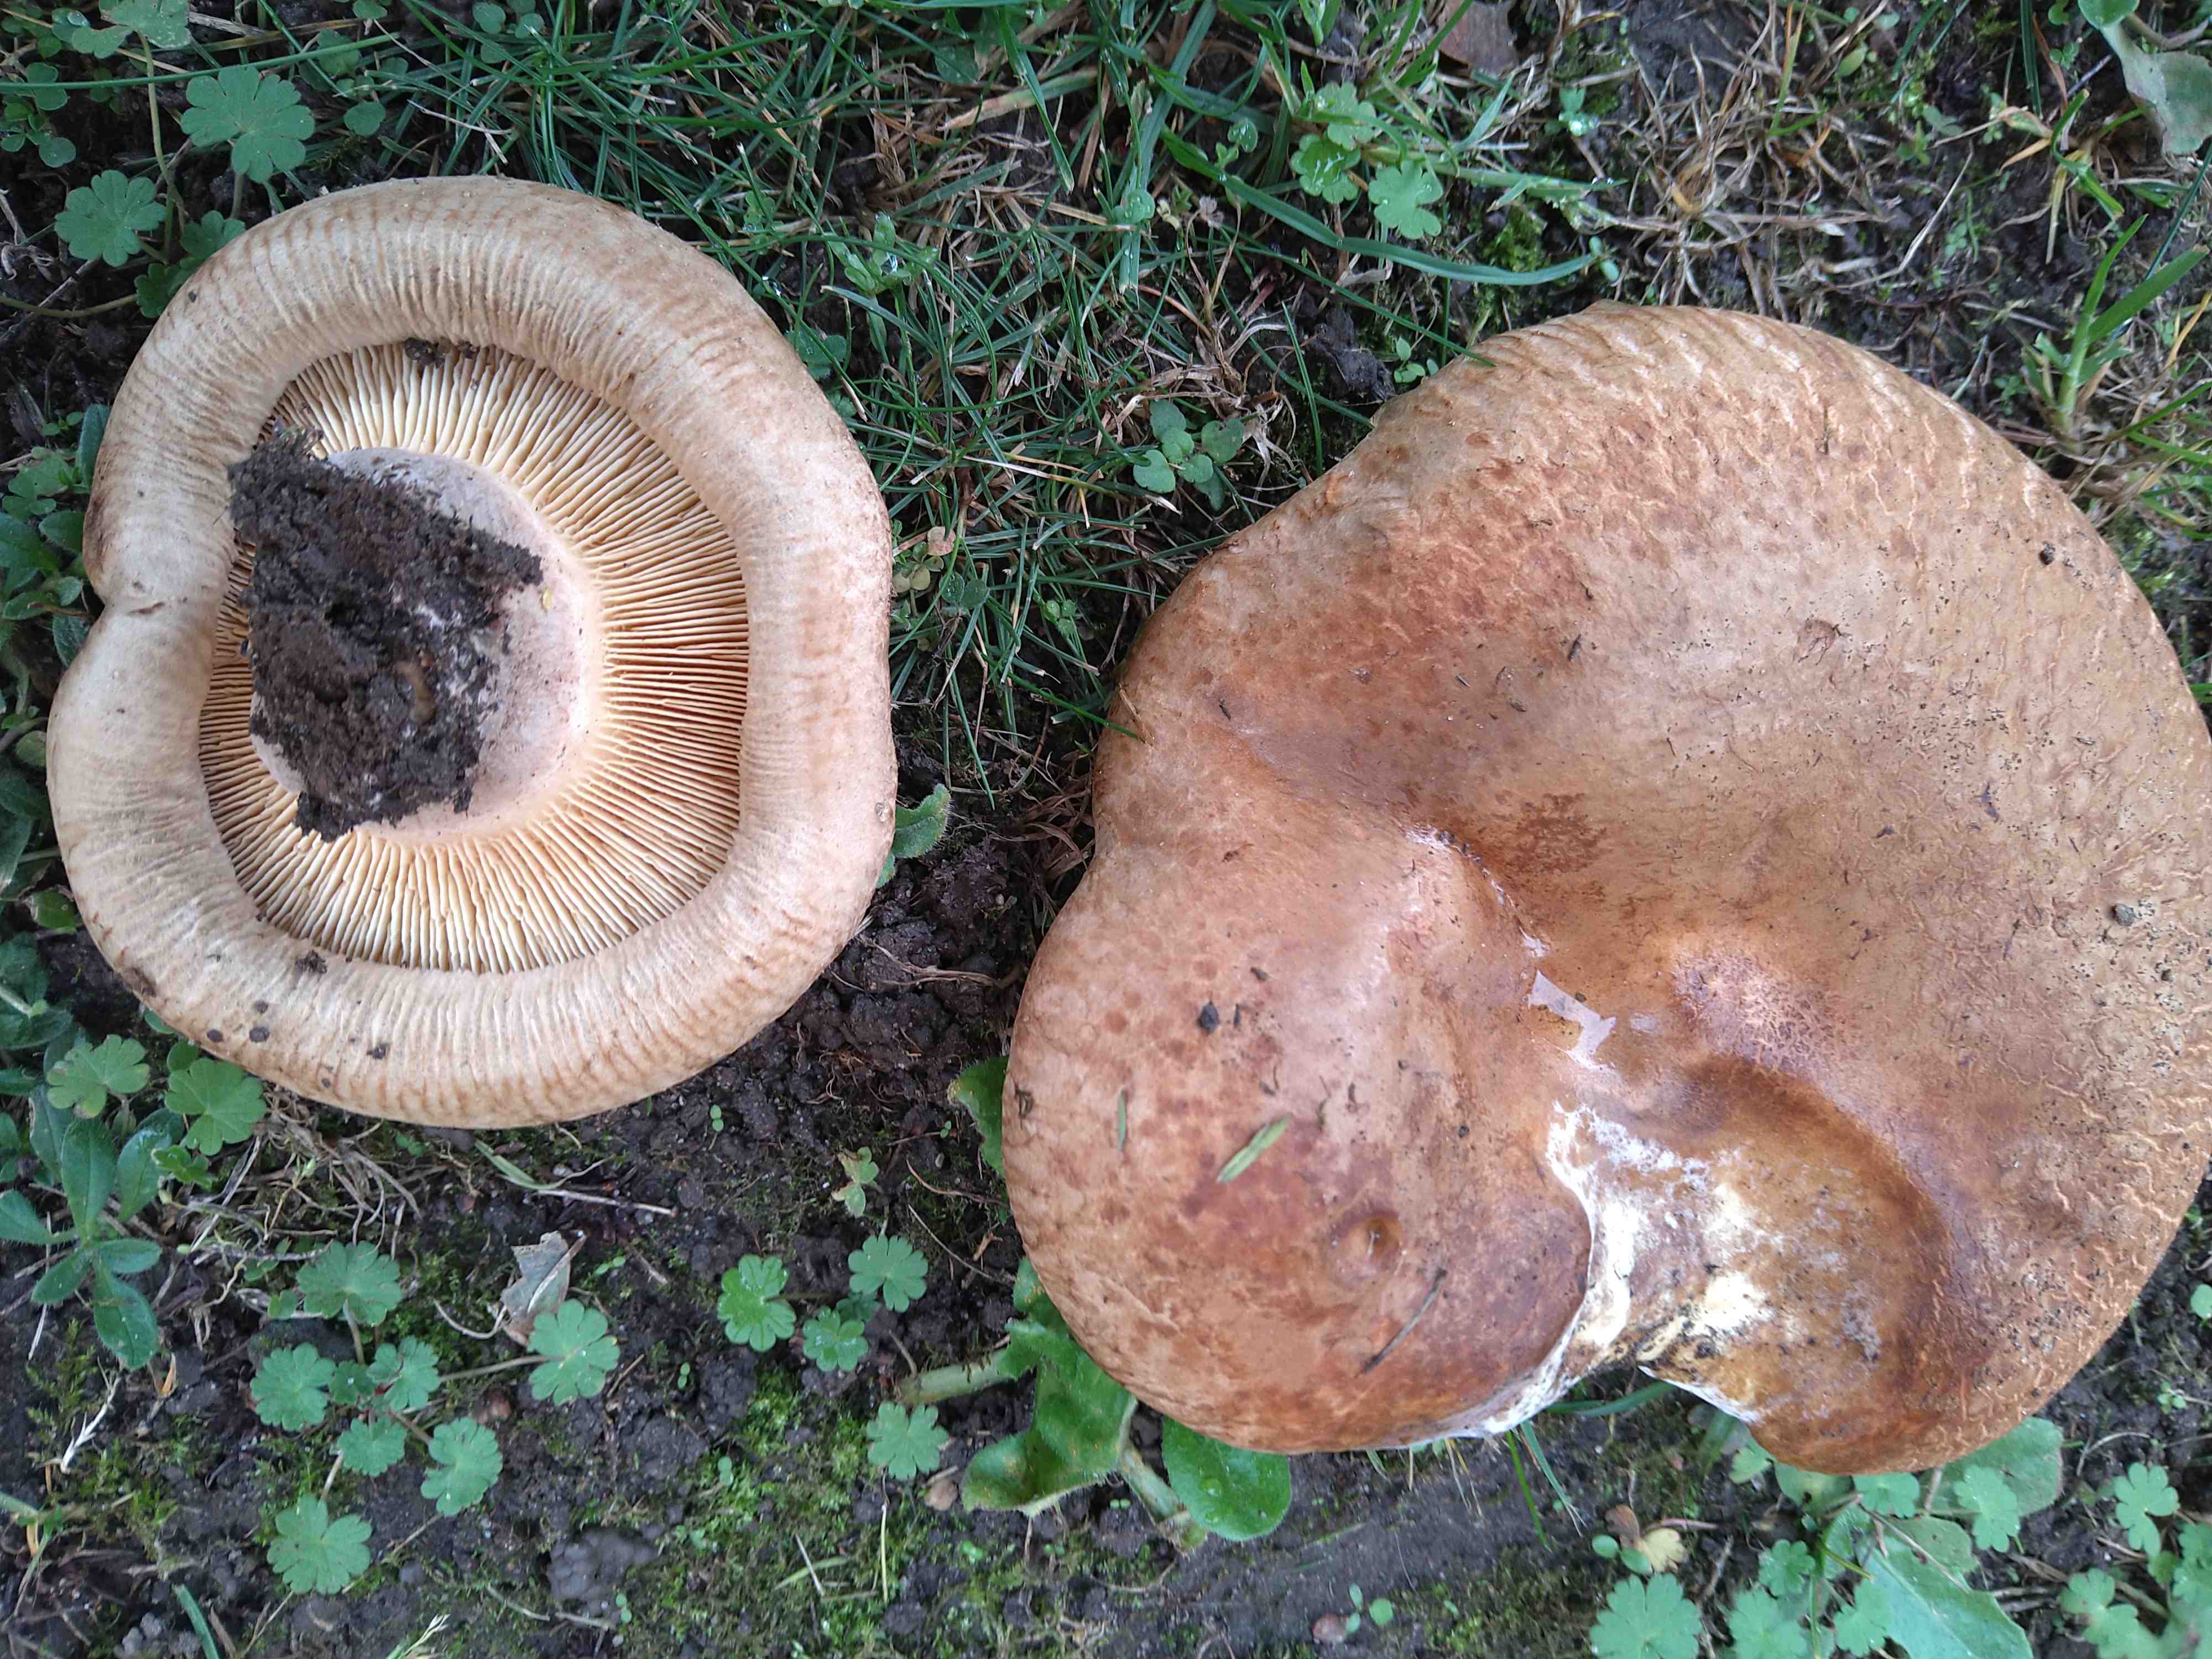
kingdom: Fungi
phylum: Basidiomycota
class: Agaricomycetes
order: Boletales
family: Paxillaceae
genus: Paxillus
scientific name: Paxillus obscurisporus
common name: mahognisporet netbladhat
